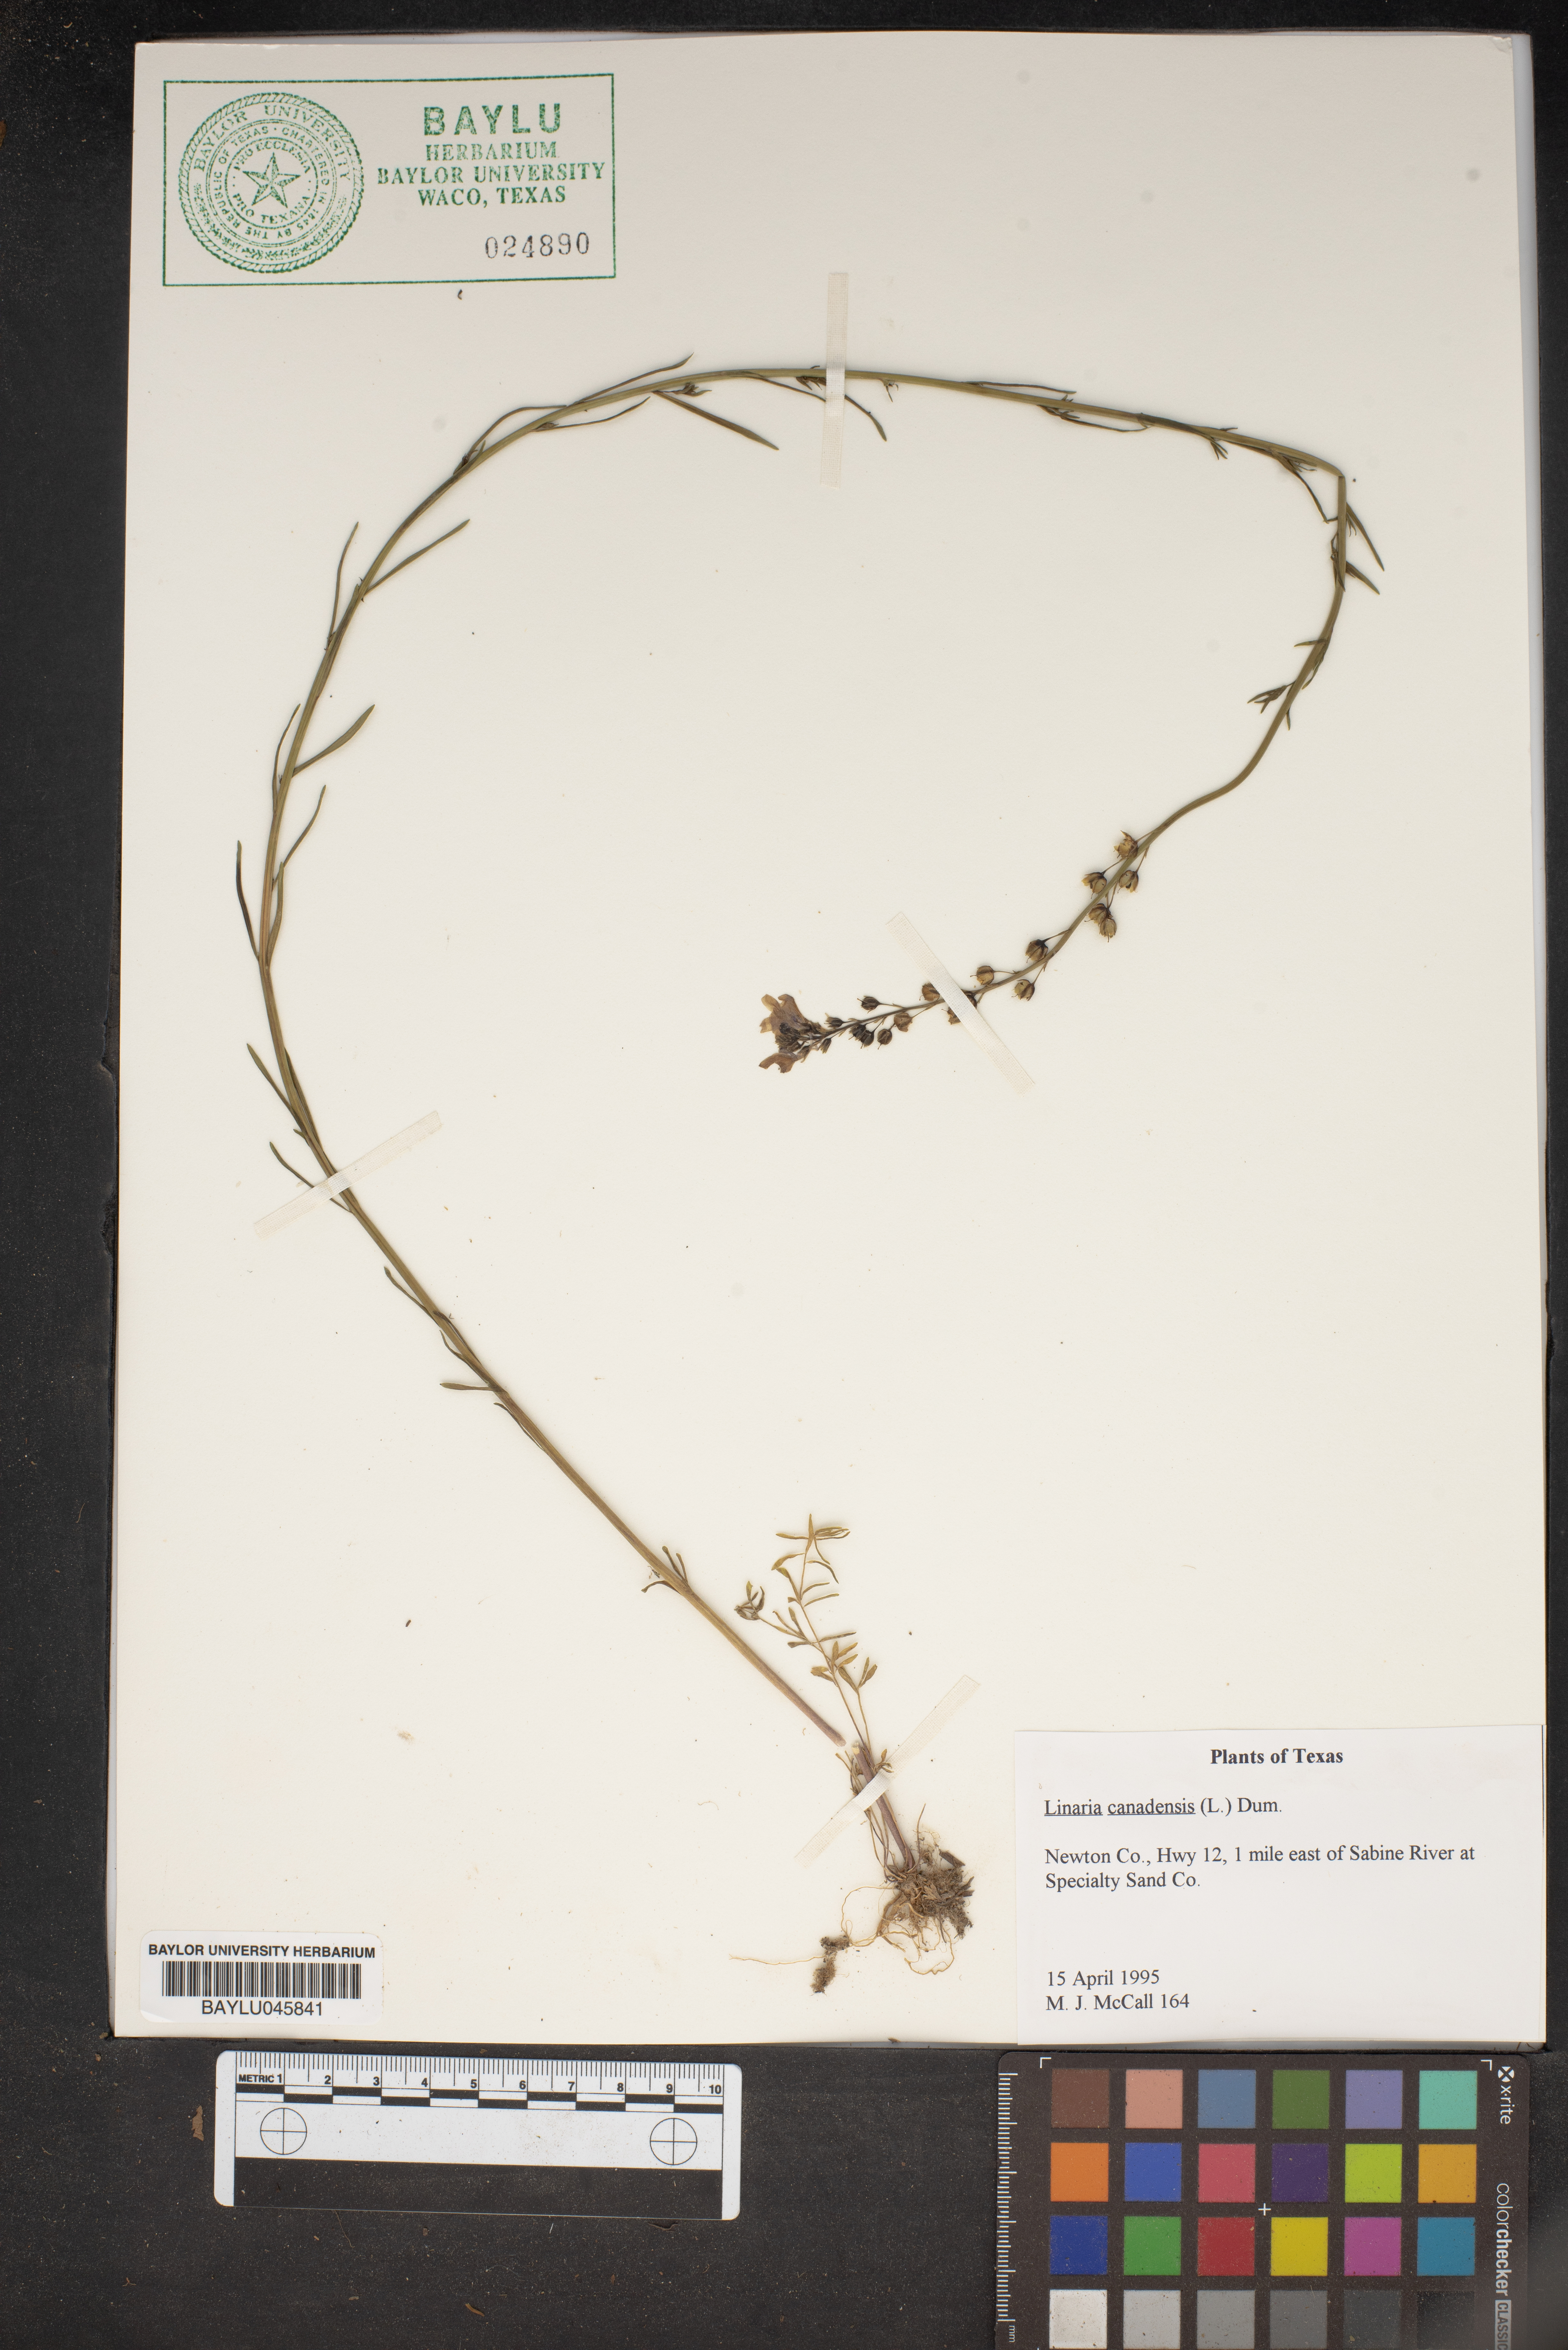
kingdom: Plantae
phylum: Tracheophyta
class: Magnoliopsida
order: Lamiales
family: Plantaginaceae
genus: Nuttallanthus
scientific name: Nuttallanthus canadensis
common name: Blue toadflax
